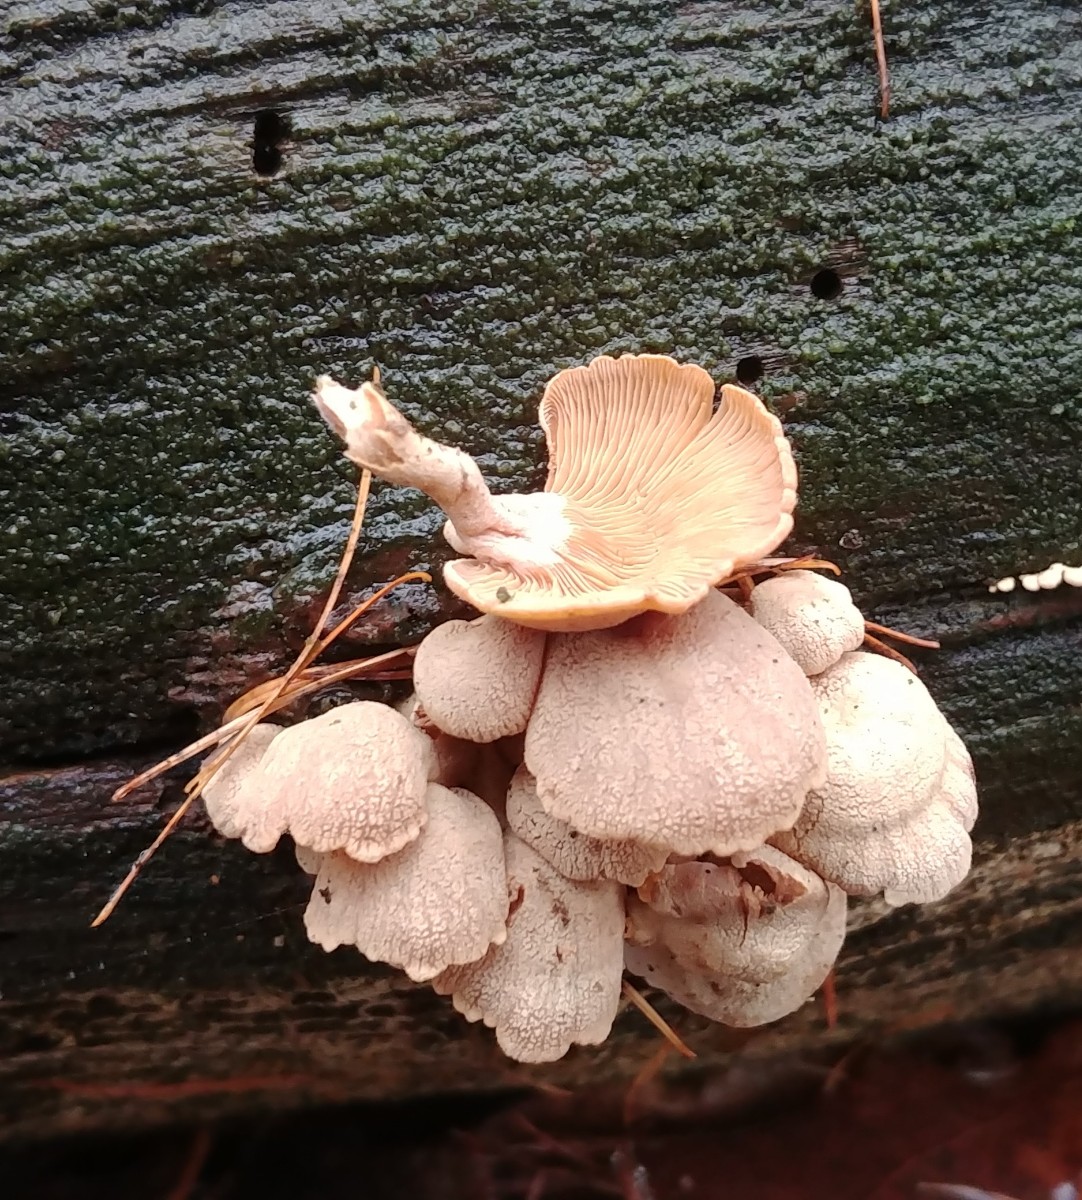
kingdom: Fungi
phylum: Basidiomycota
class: Agaricomycetes
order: Agaricales
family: Mycenaceae
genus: Panellus
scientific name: Panellus stipticus
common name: kliddet epaulethat
